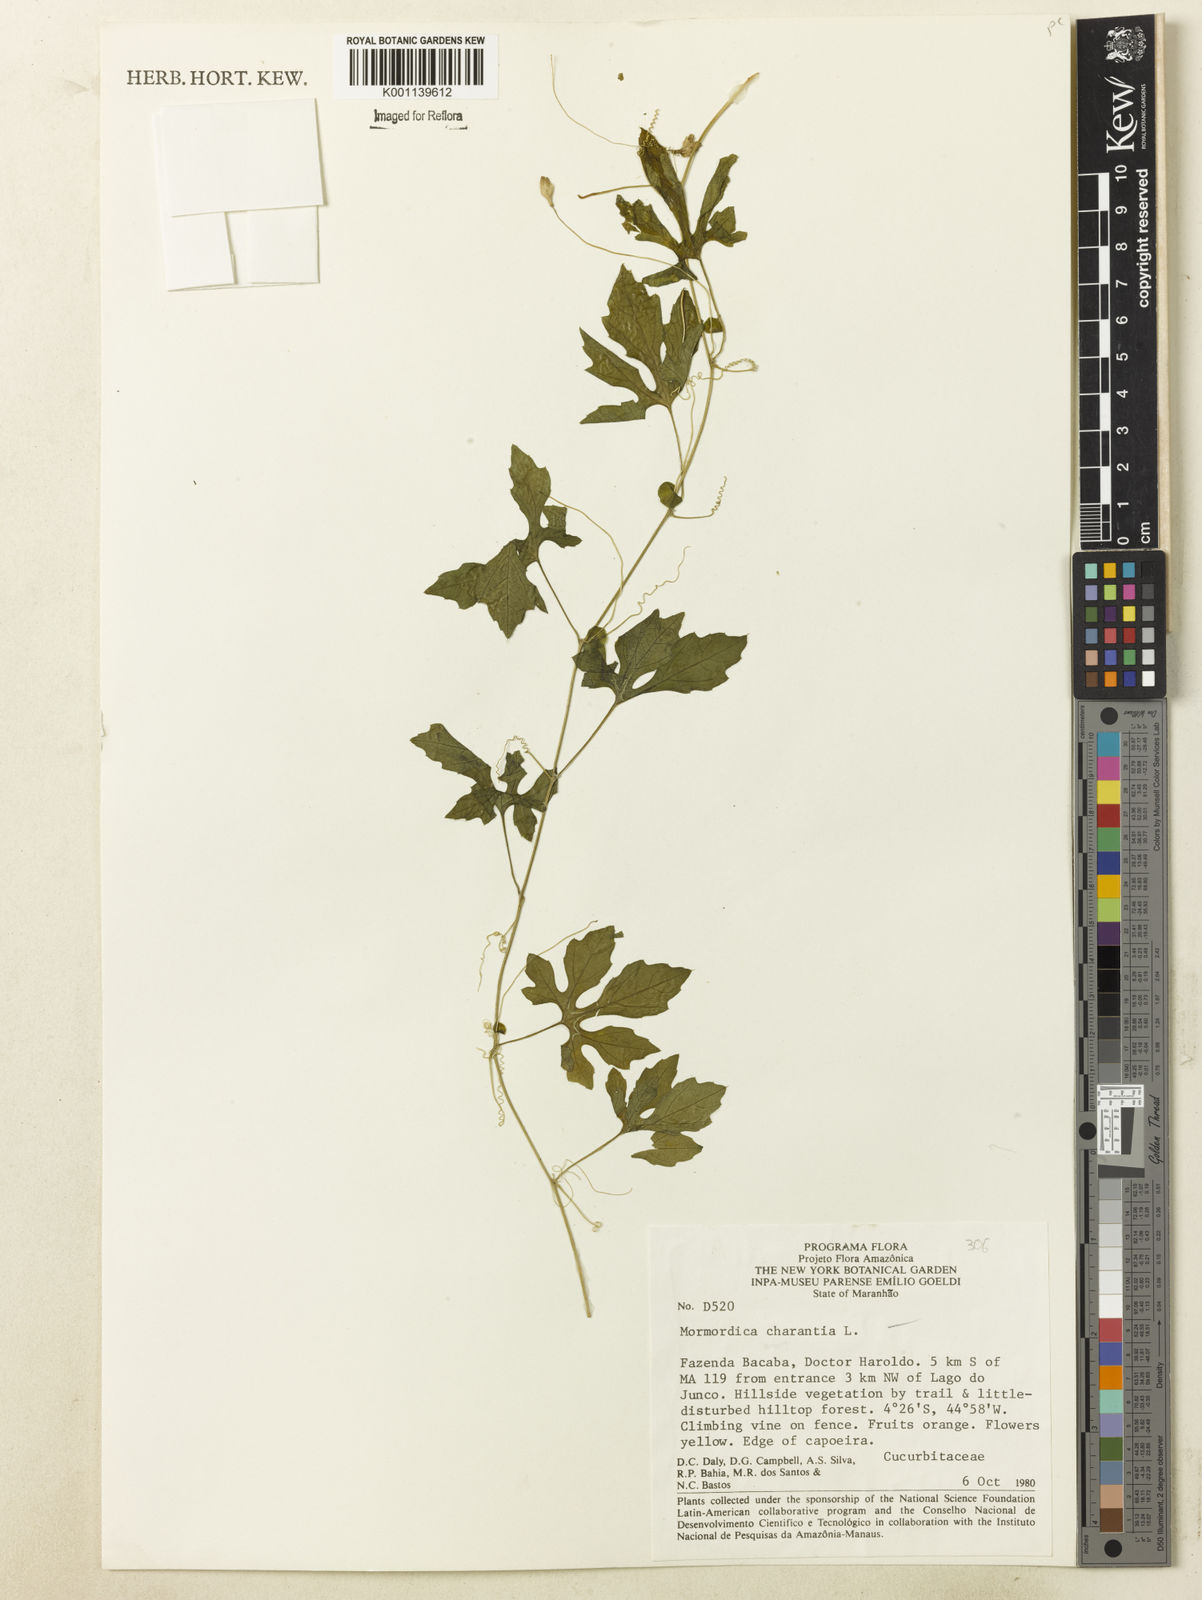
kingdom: Plantae
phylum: Tracheophyta
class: Magnoliopsida
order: Cucurbitales
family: Cucurbitaceae
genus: Momordica
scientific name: Momordica charantia
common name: Balsampear
